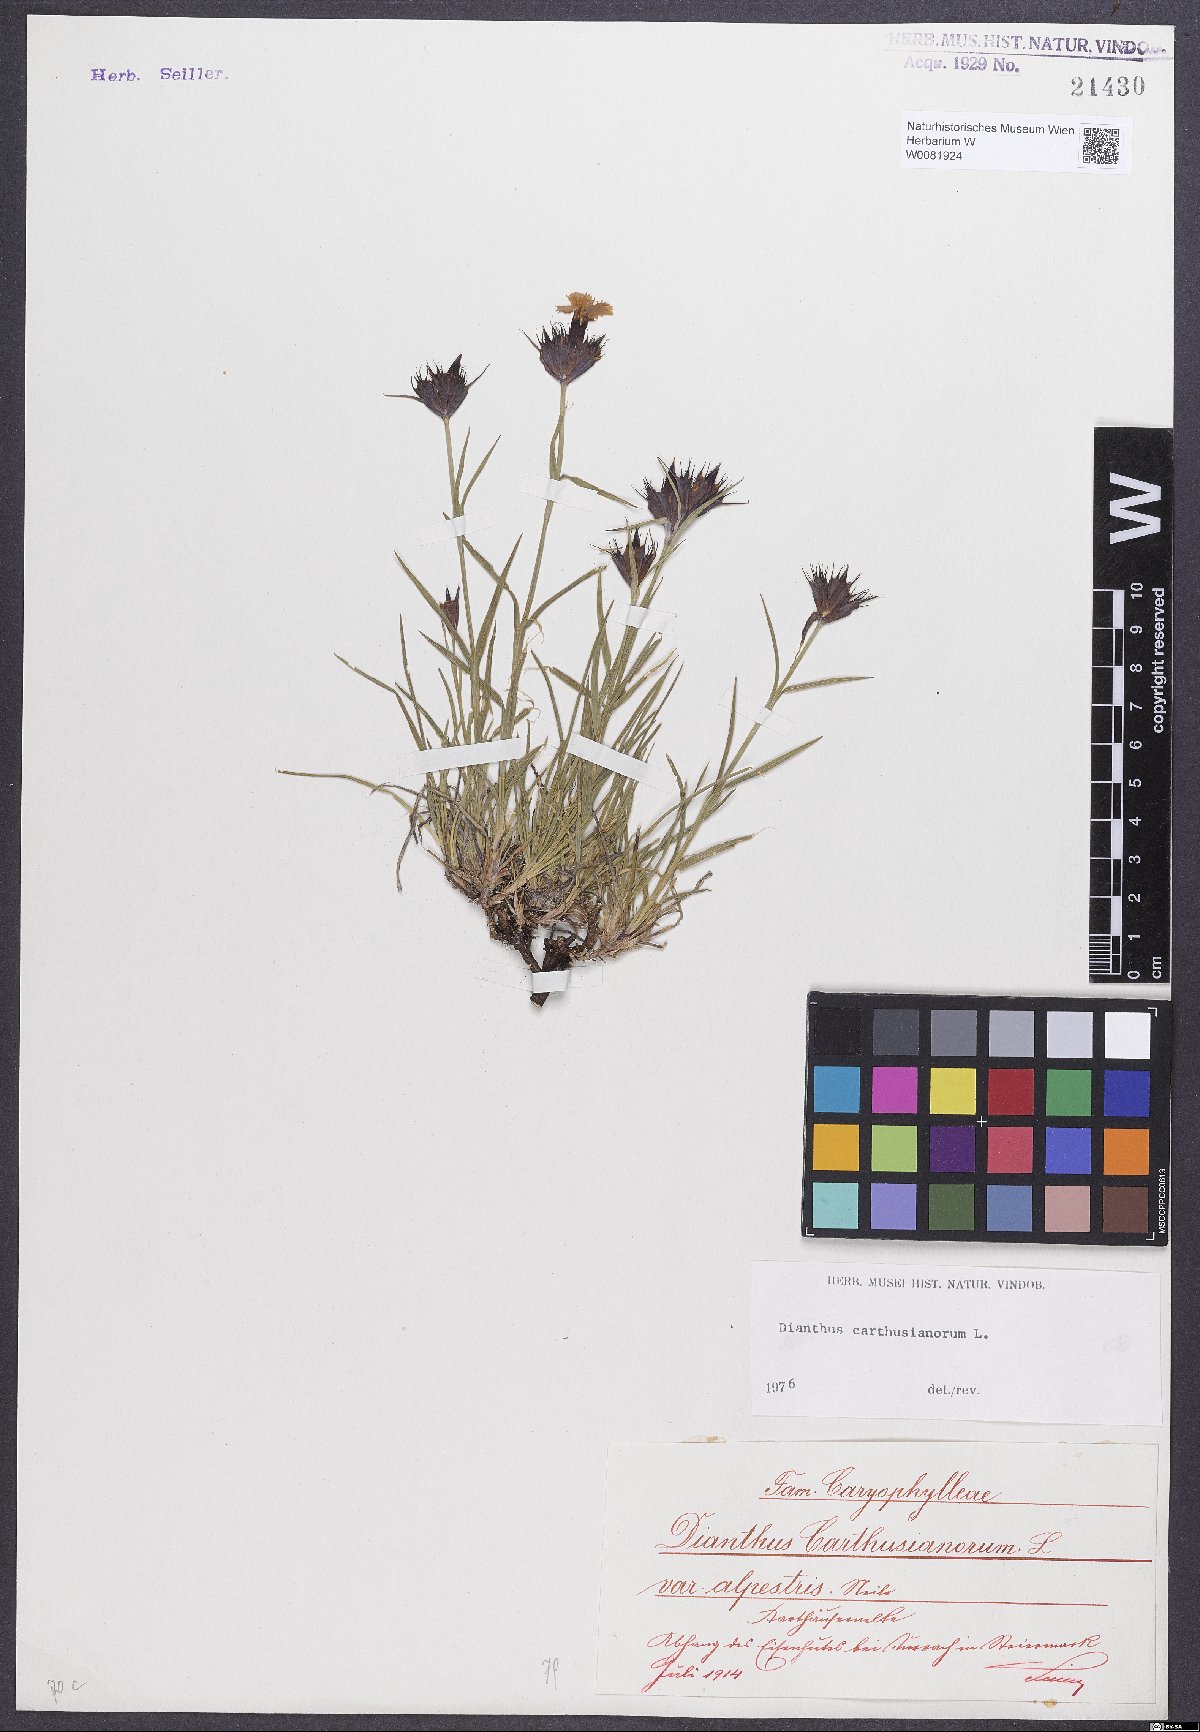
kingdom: Plantae
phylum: Tracheophyta
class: Magnoliopsida
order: Caryophyllales
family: Caryophyllaceae
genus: Dianthus
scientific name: Dianthus carthusianorum
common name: Carthusian pink
